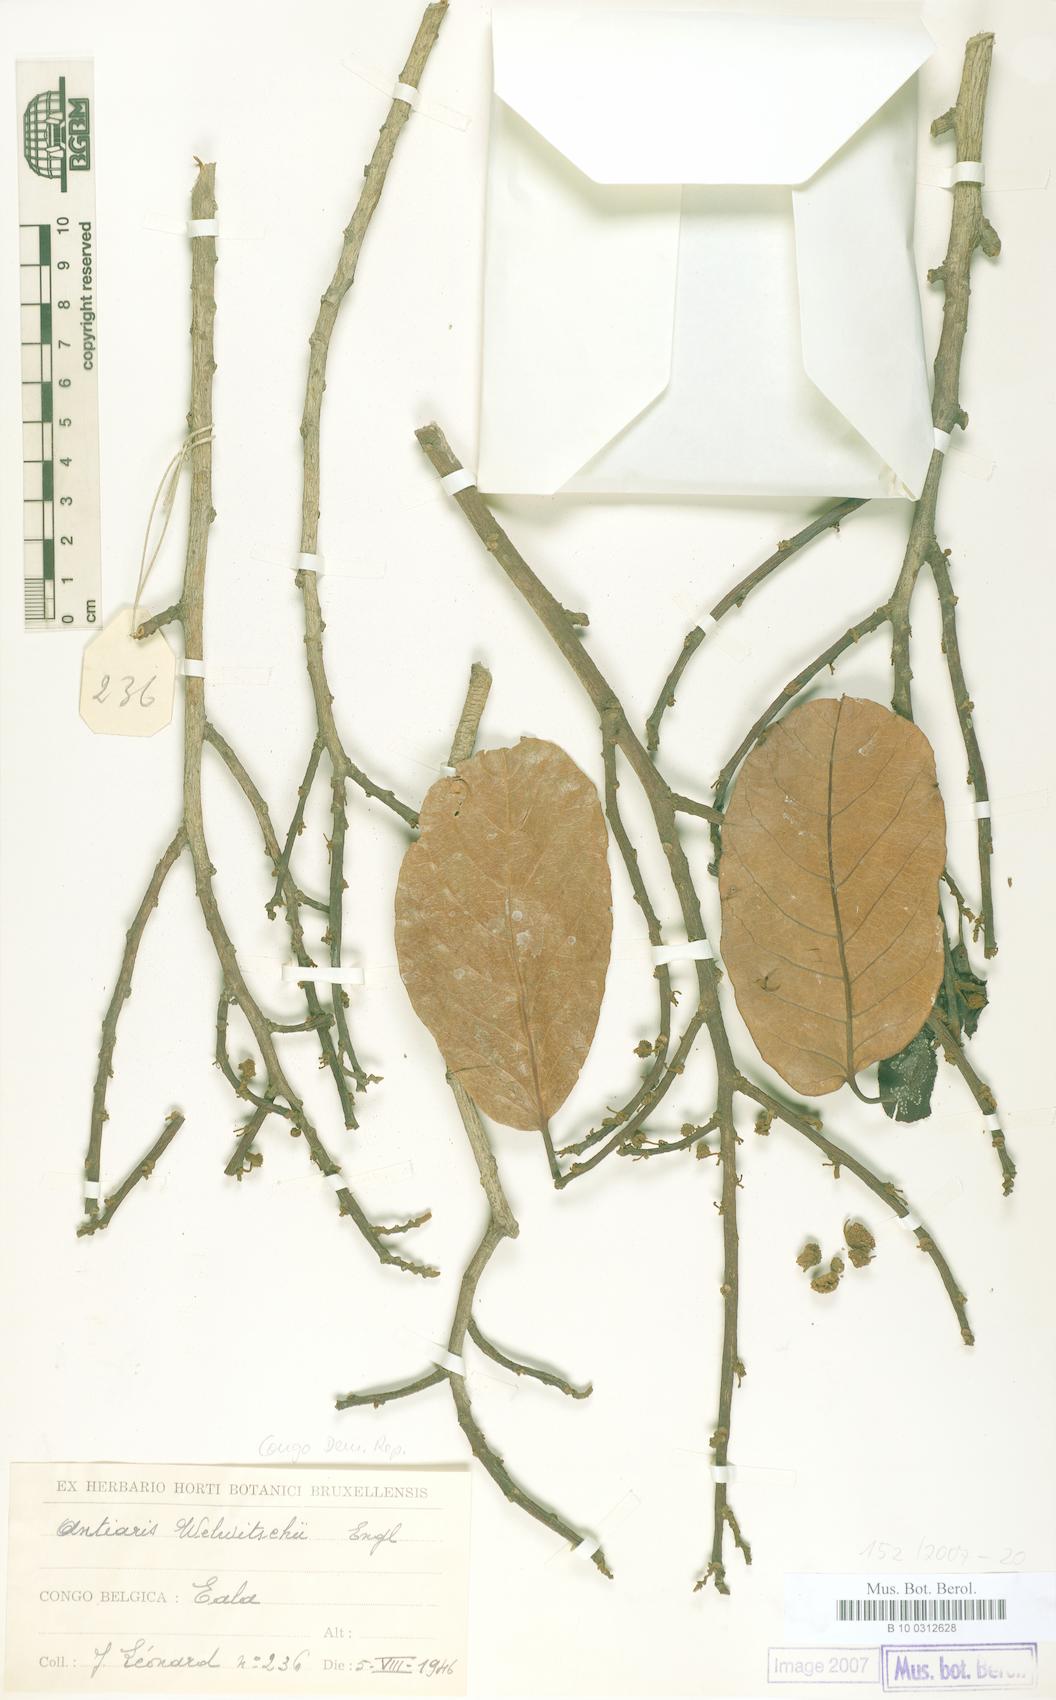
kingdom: Plantae
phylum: Tracheophyta
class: Magnoliopsida
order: Rosales
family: Moraceae
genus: Antiaris
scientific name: Antiaris toxicaria
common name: Sackingtree
